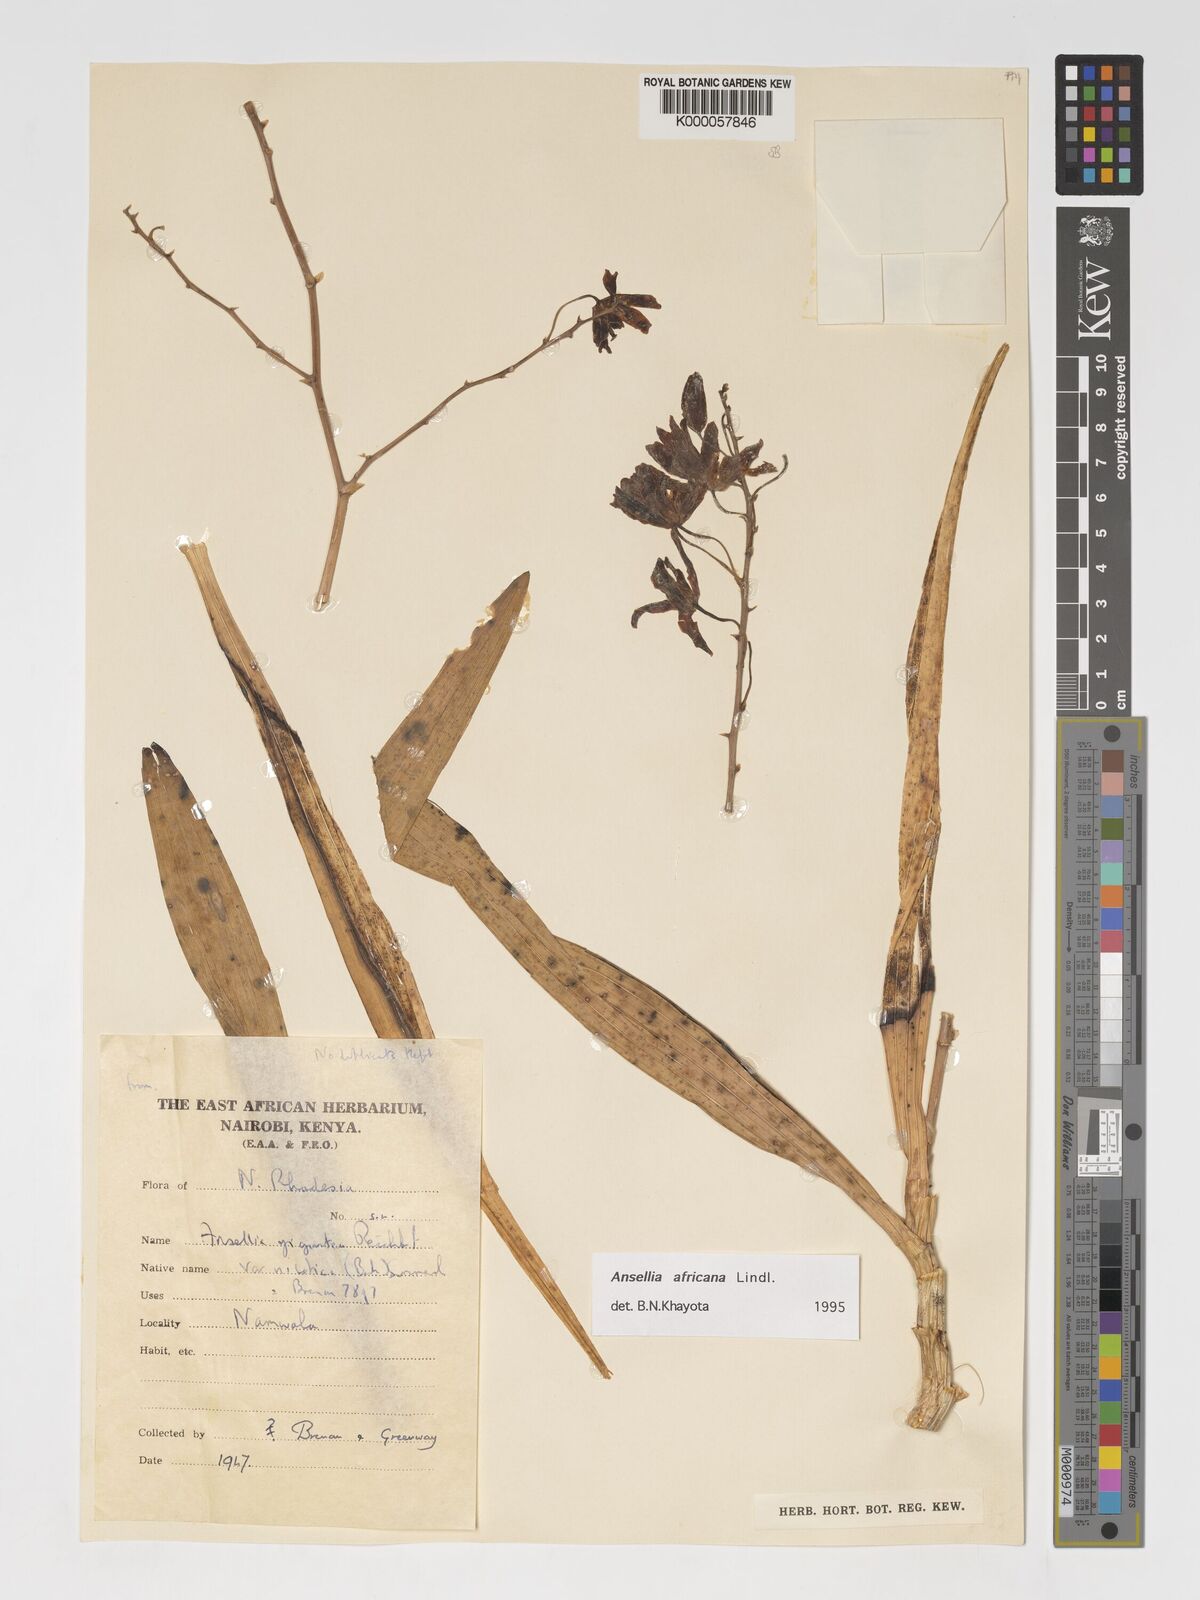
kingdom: Plantae
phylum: Tracheophyta
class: Liliopsida
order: Asparagales
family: Orchidaceae
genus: Ansellia
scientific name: Ansellia africana
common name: African ansellia
